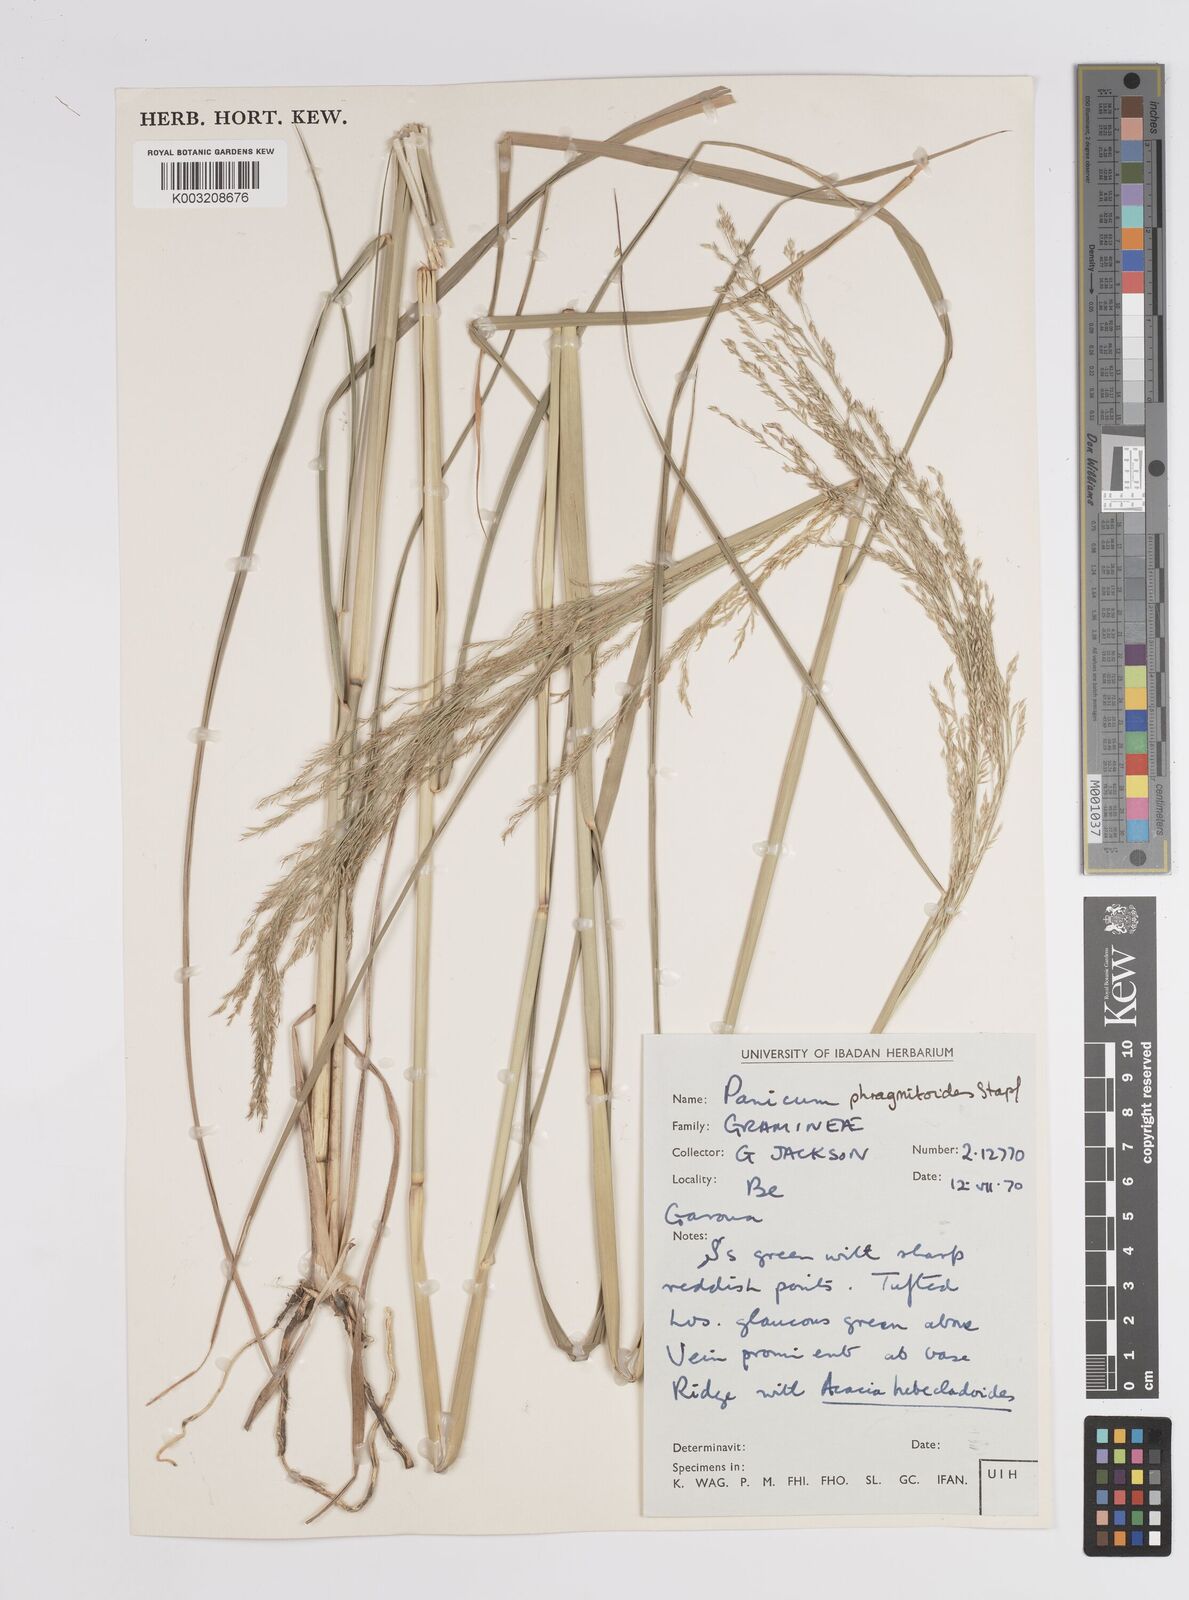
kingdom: Plantae
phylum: Tracheophyta
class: Liliopsida
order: Poales
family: Poaceae
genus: Panicum
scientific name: Panicum phragmitoides
